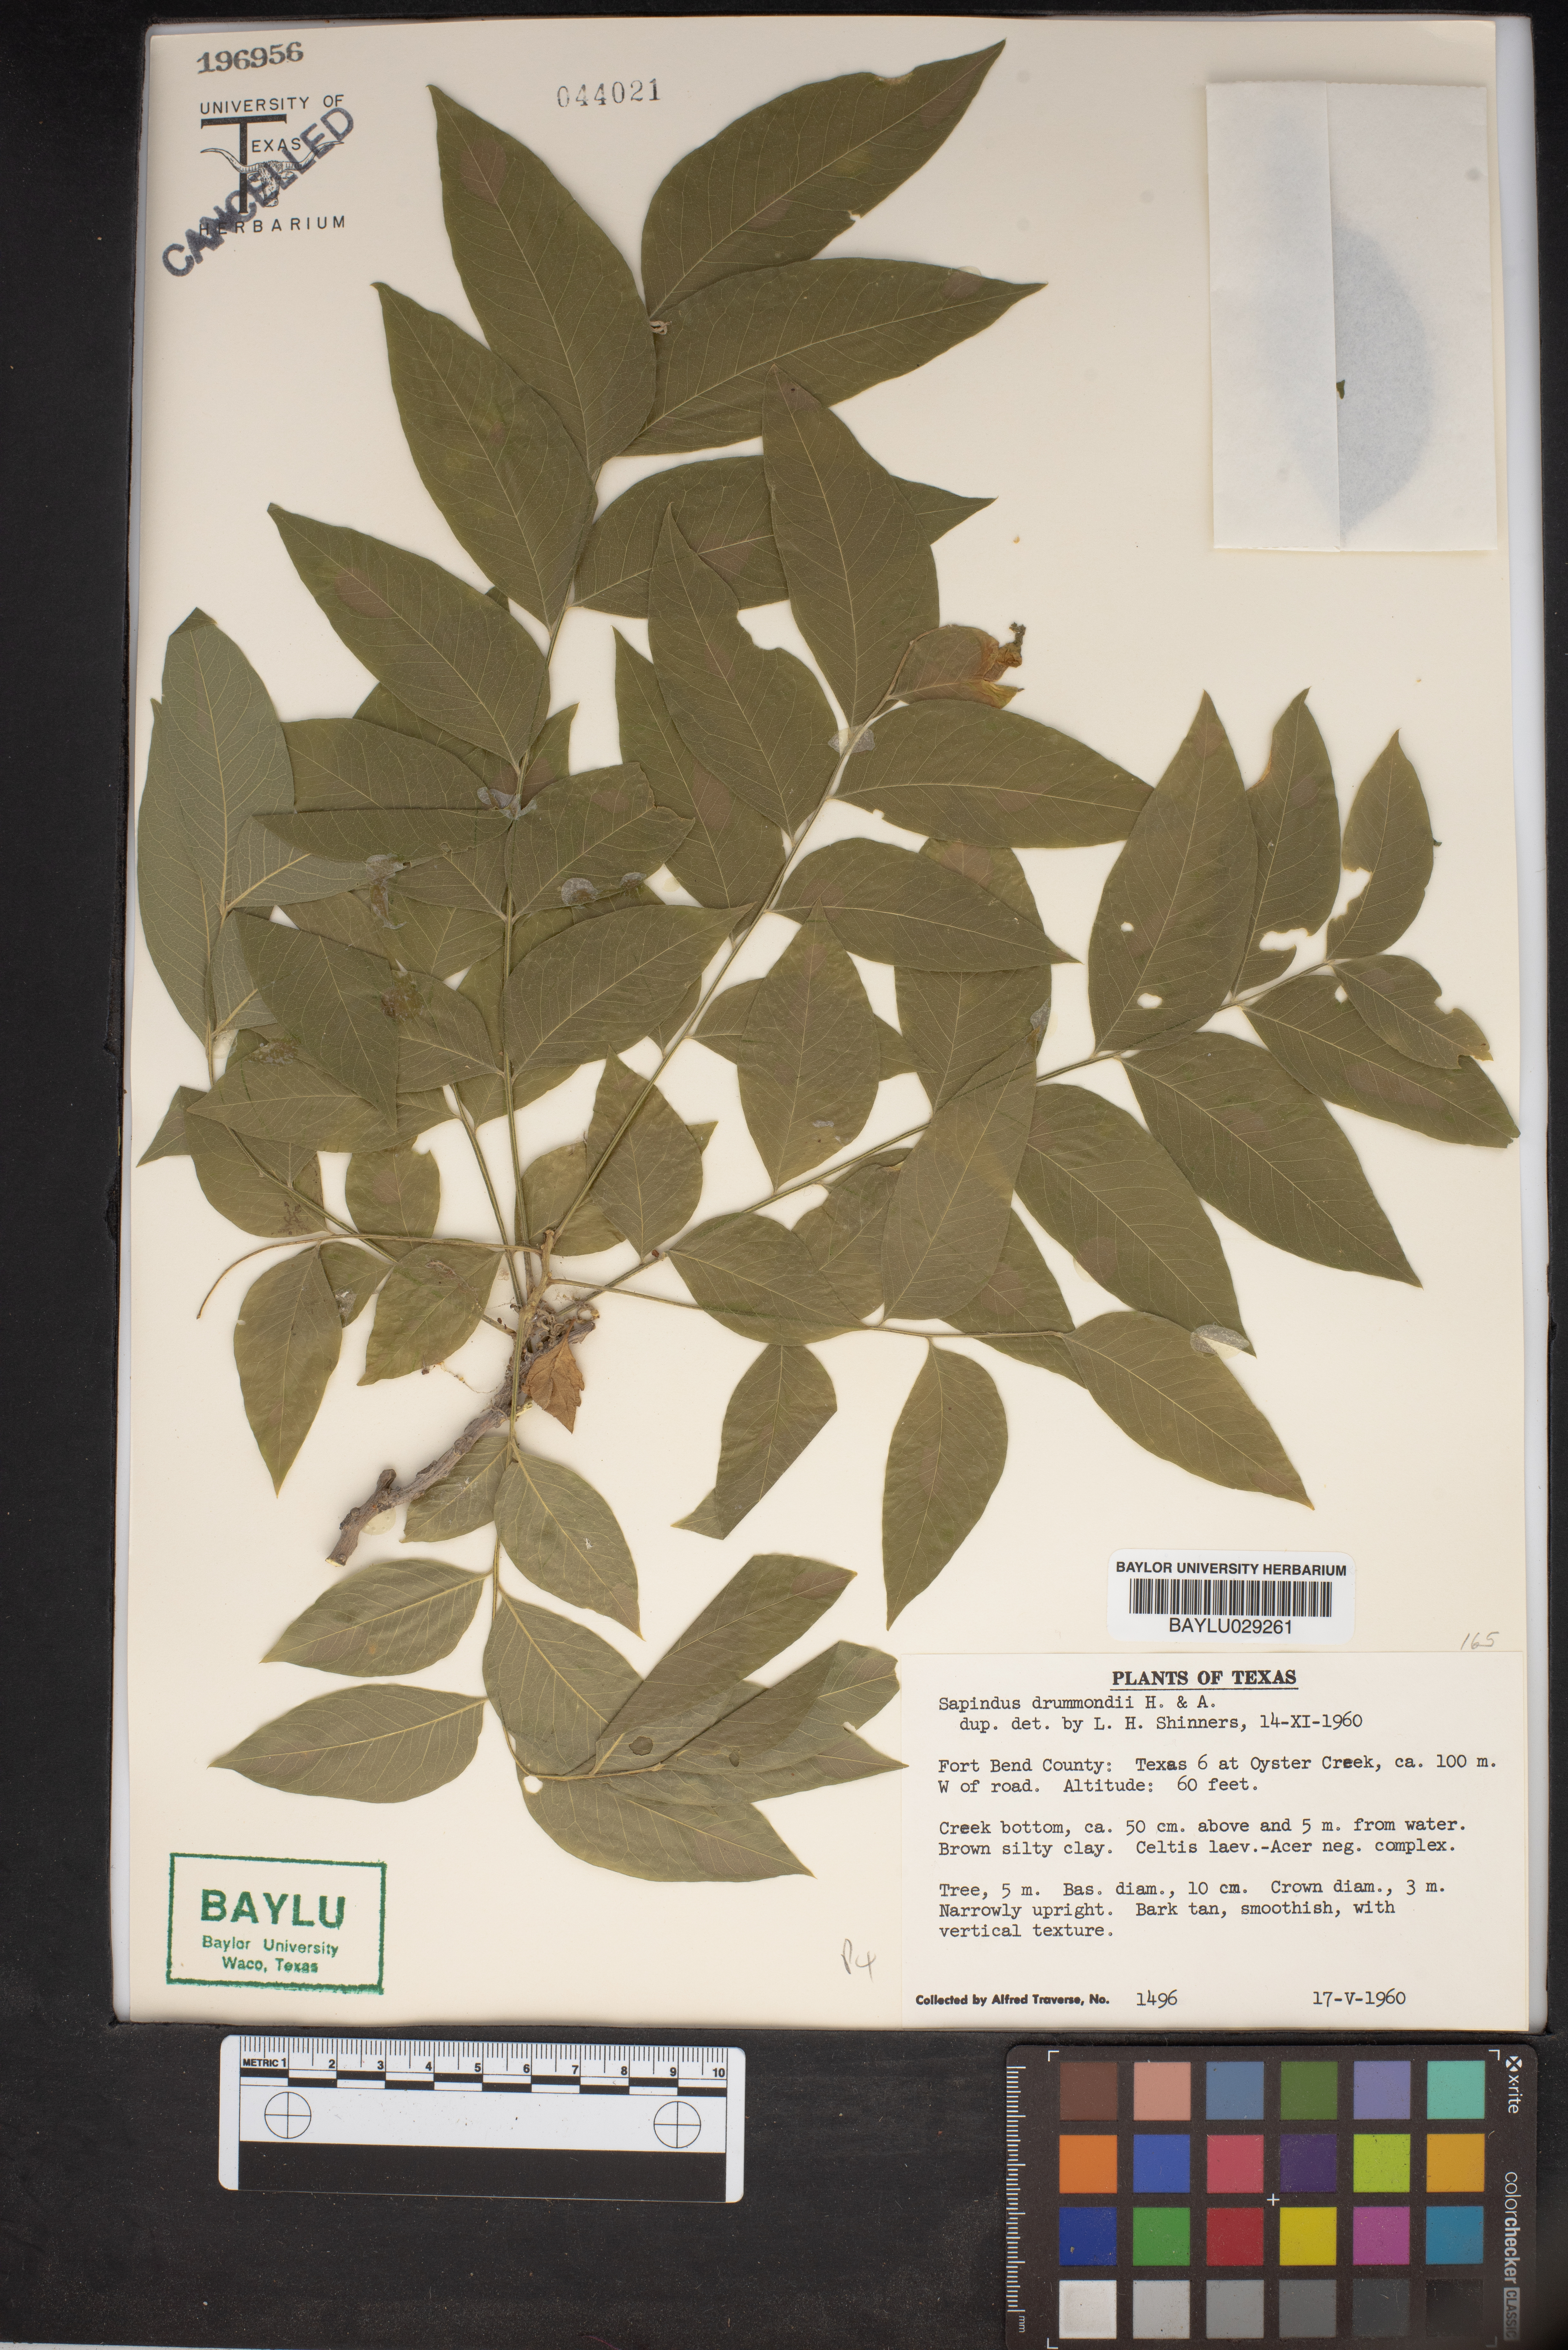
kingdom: Plantae
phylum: Tracheophyta
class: Magnoliopsida
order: Sapindales
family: Sapindaceae
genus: Sapindus
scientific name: Sapindus drummondii
